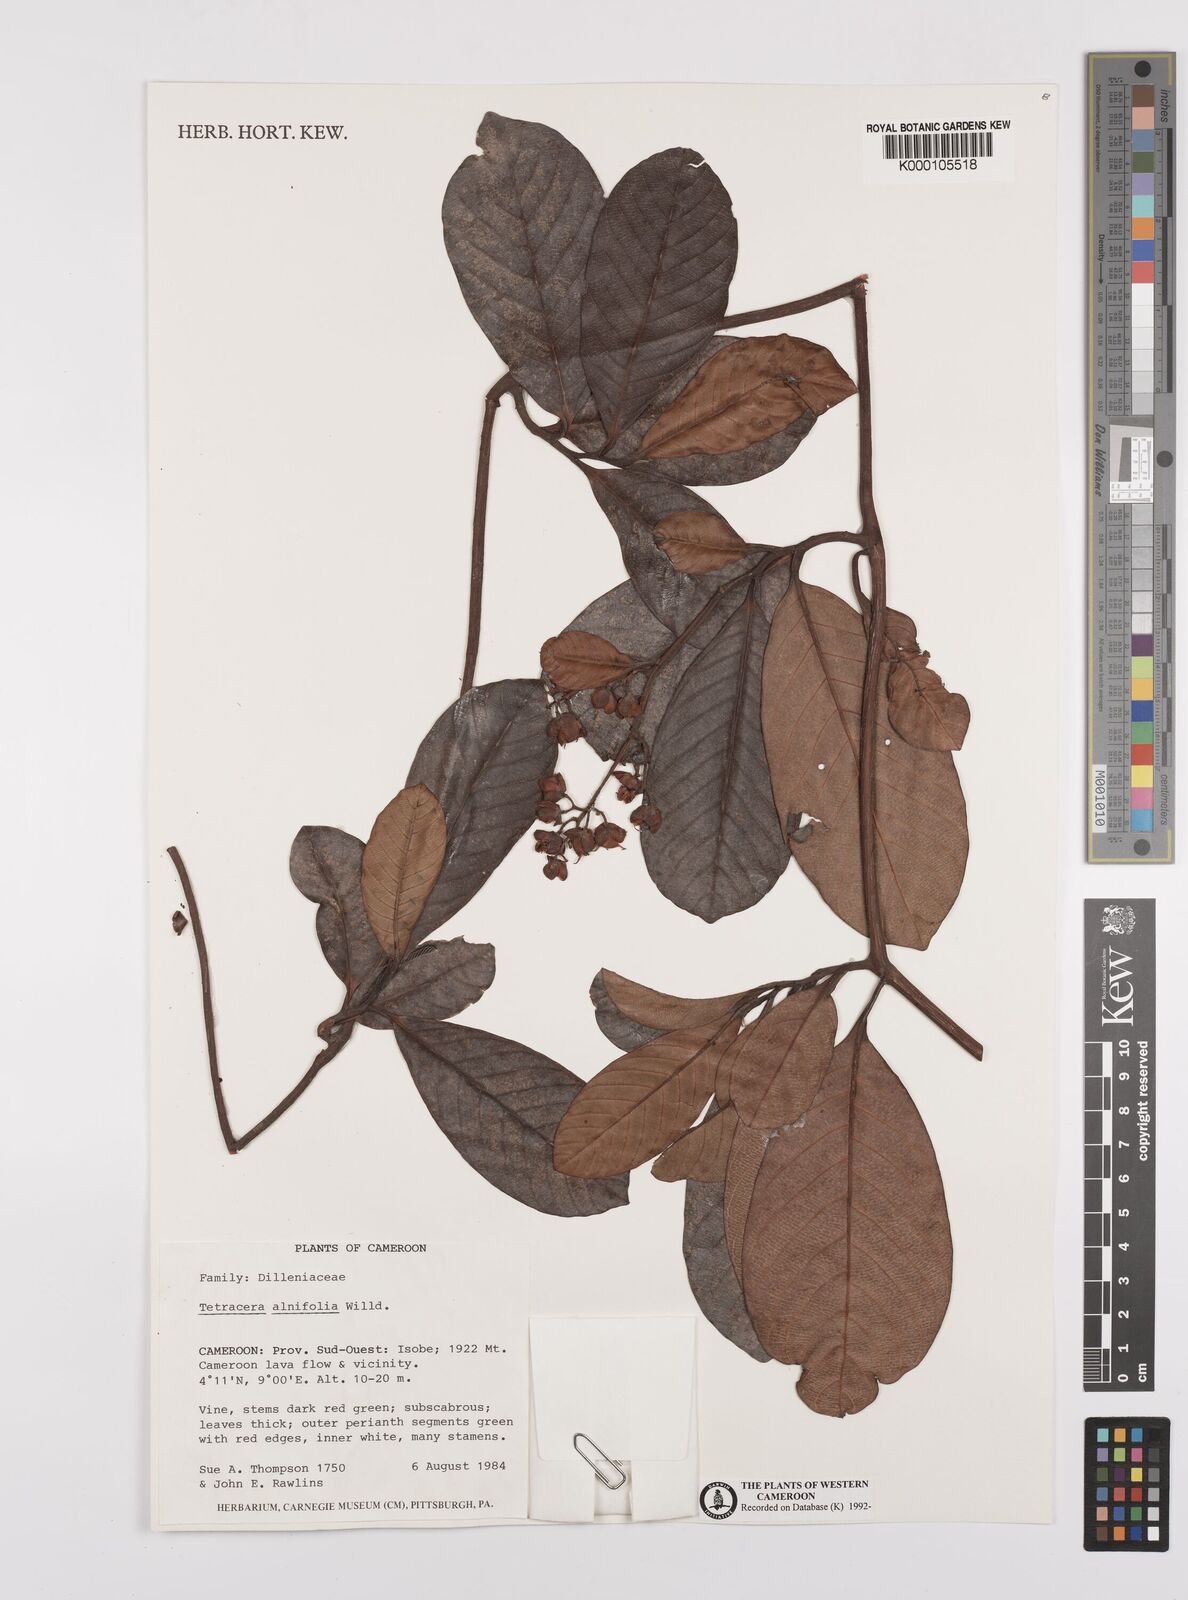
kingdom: Plantae
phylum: Tracheophyta
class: Magnoliopsida
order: Dilleniales
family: Dilleniaceae
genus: Tetracera
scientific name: Tetracera alnifolia
